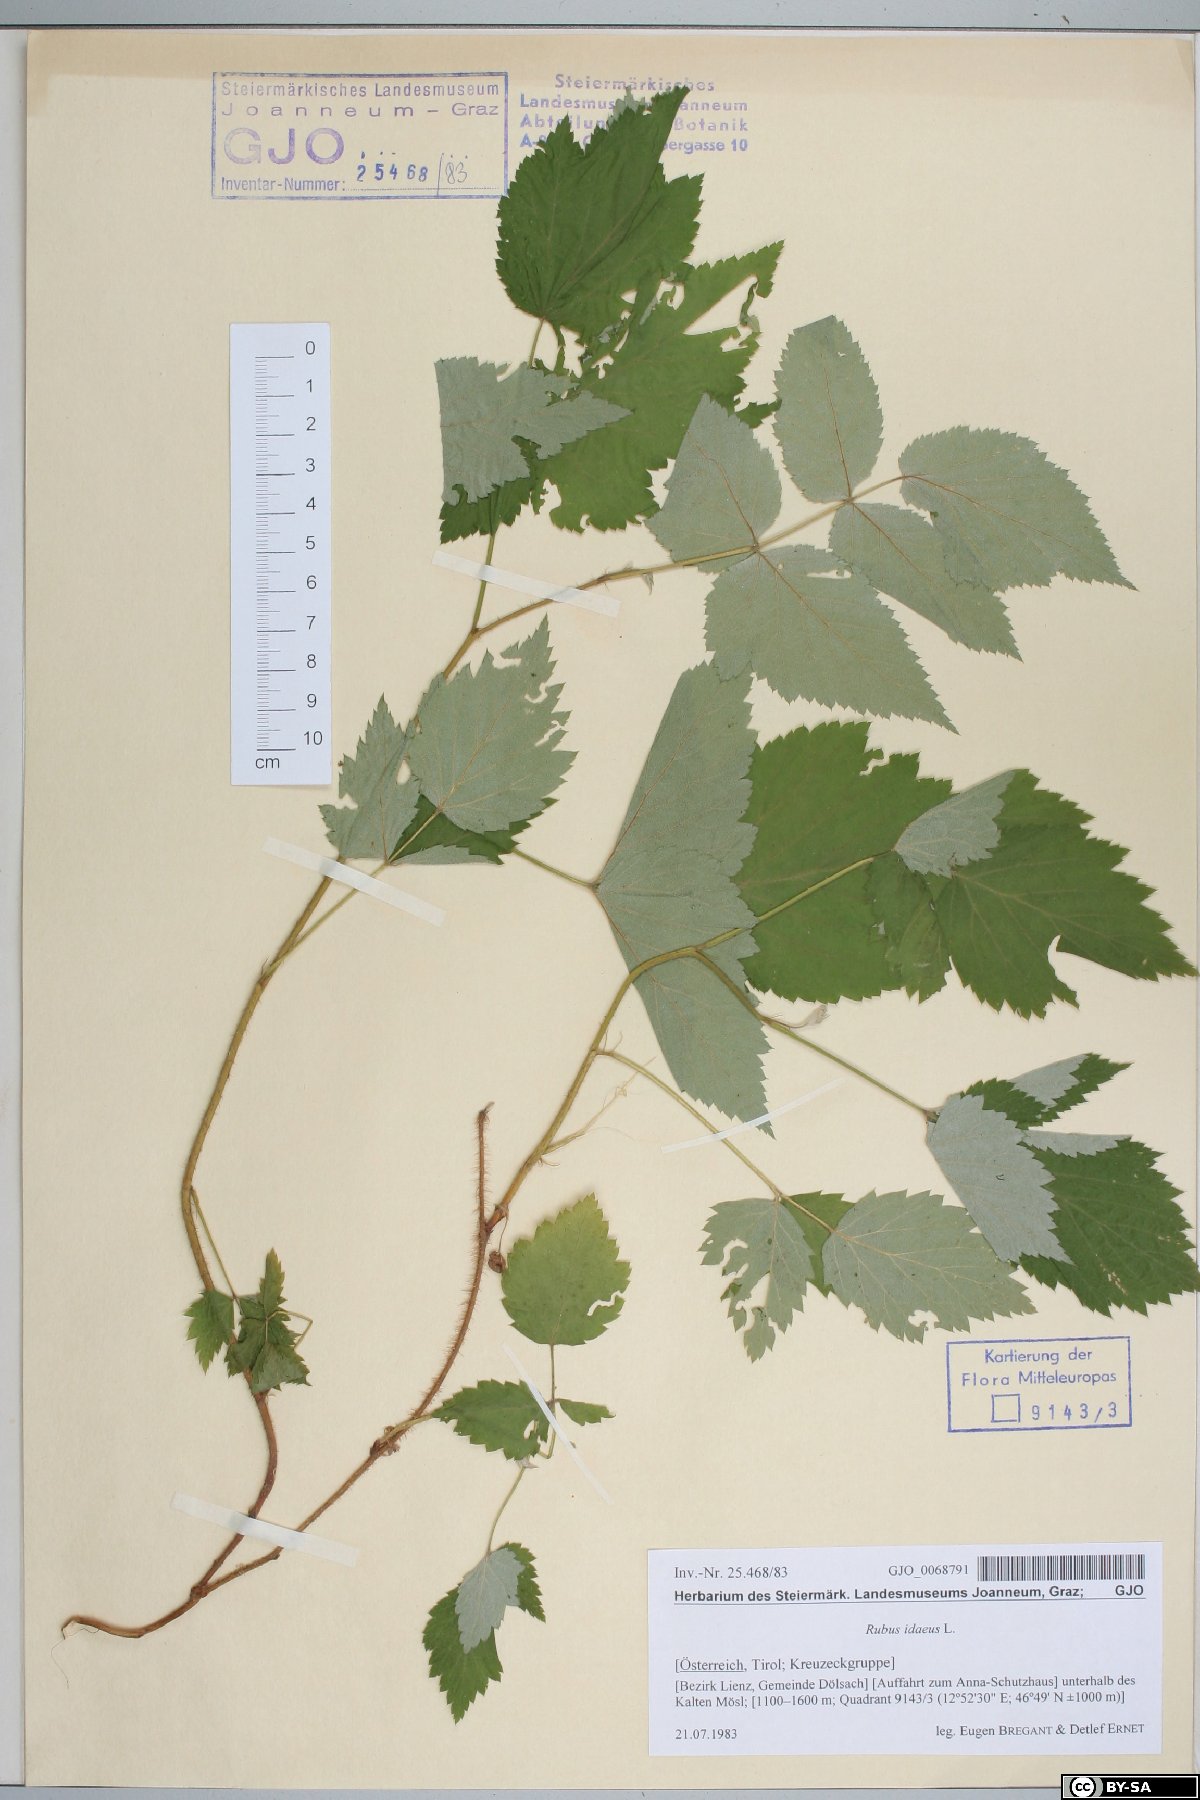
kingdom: Plantae
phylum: Tracheophyta
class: Magnoliopsida
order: Rosales
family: Rosaceae
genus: Rubus
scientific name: Rubus idaeus
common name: Raspberry
